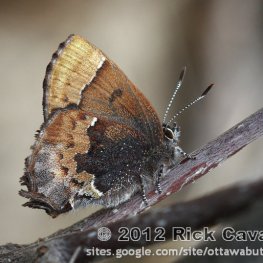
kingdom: Animalia
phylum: Arthropoda
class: Insecta
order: Lepidoptera
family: Lycaenidae
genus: Incisalia
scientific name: Incisalia henrici
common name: Henry's Elfin
